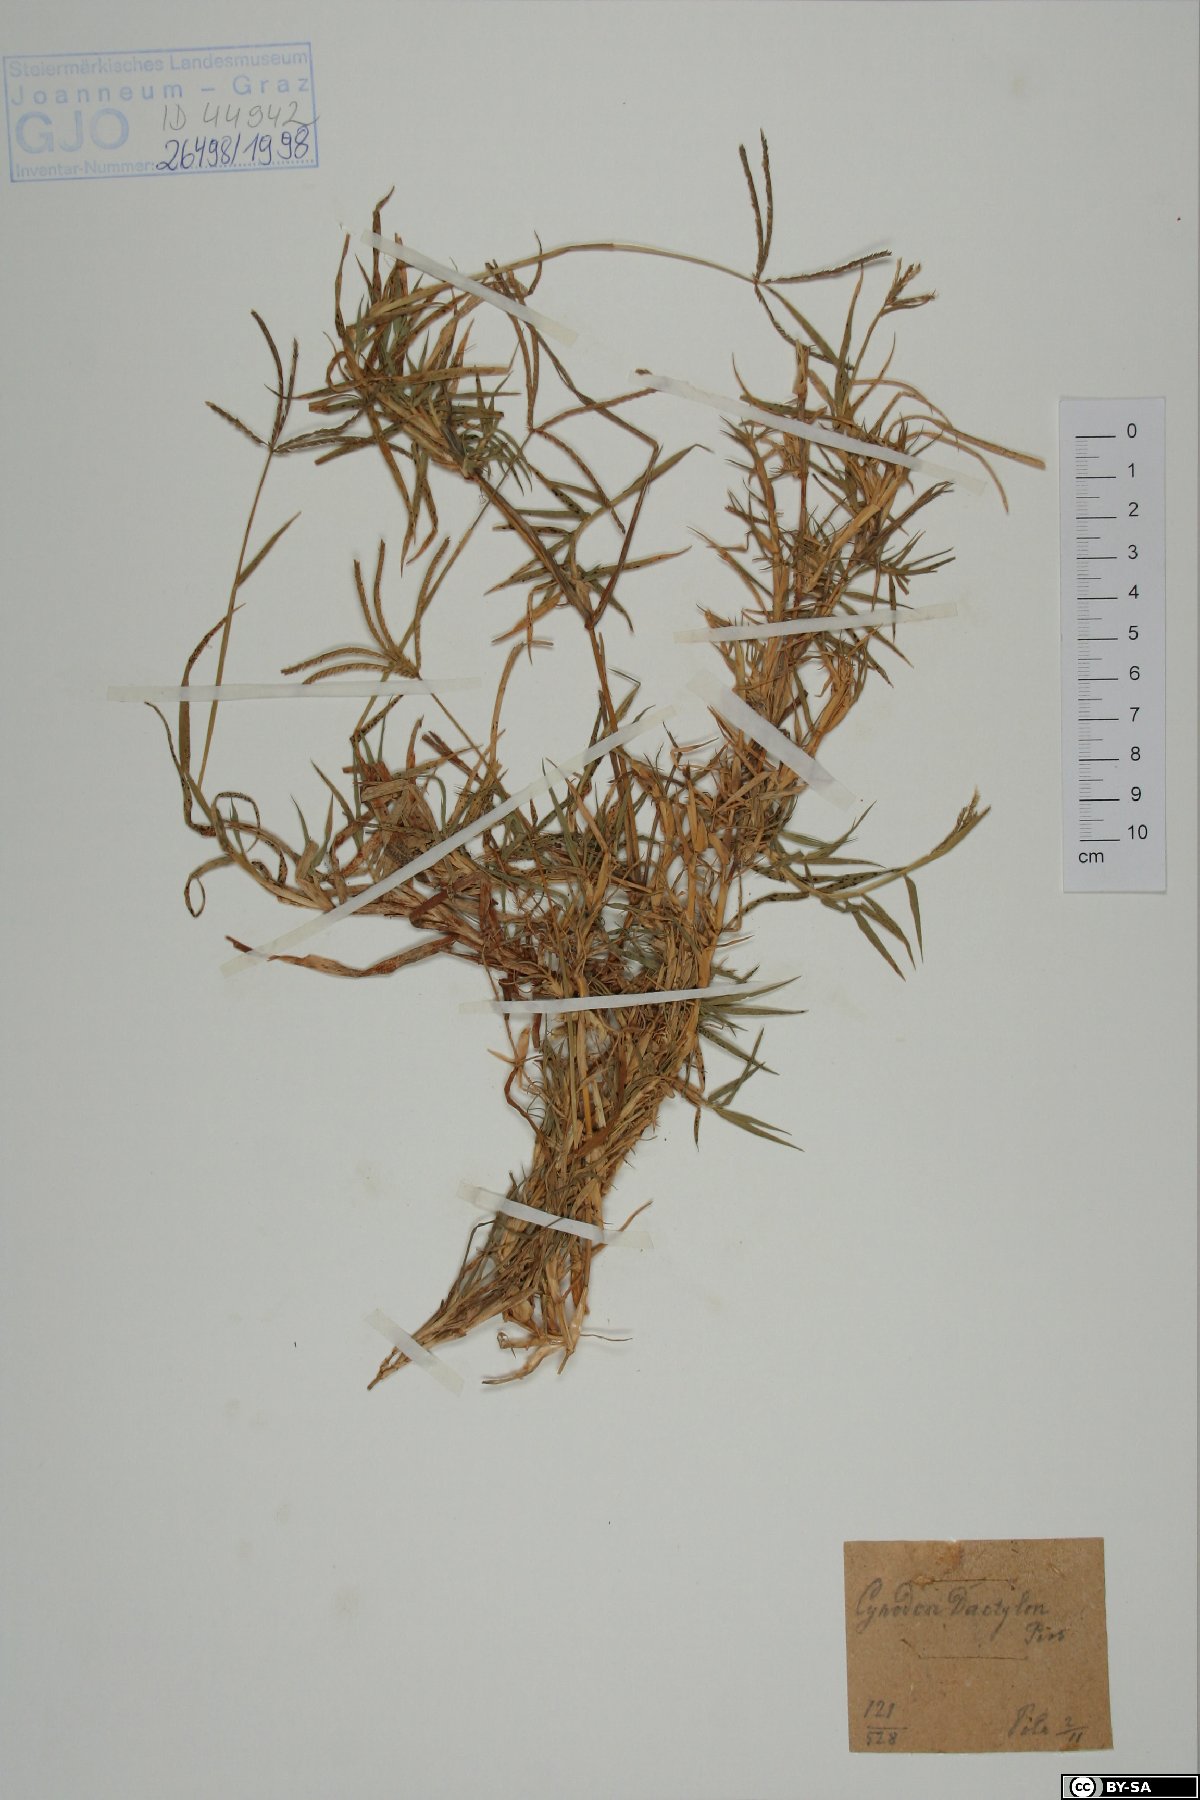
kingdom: Plantae
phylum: Tracheophyta
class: Liliopsida
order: Poales
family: Poaceae
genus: Cynodon
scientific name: Cynodon dactylon
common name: Bermuda grass
